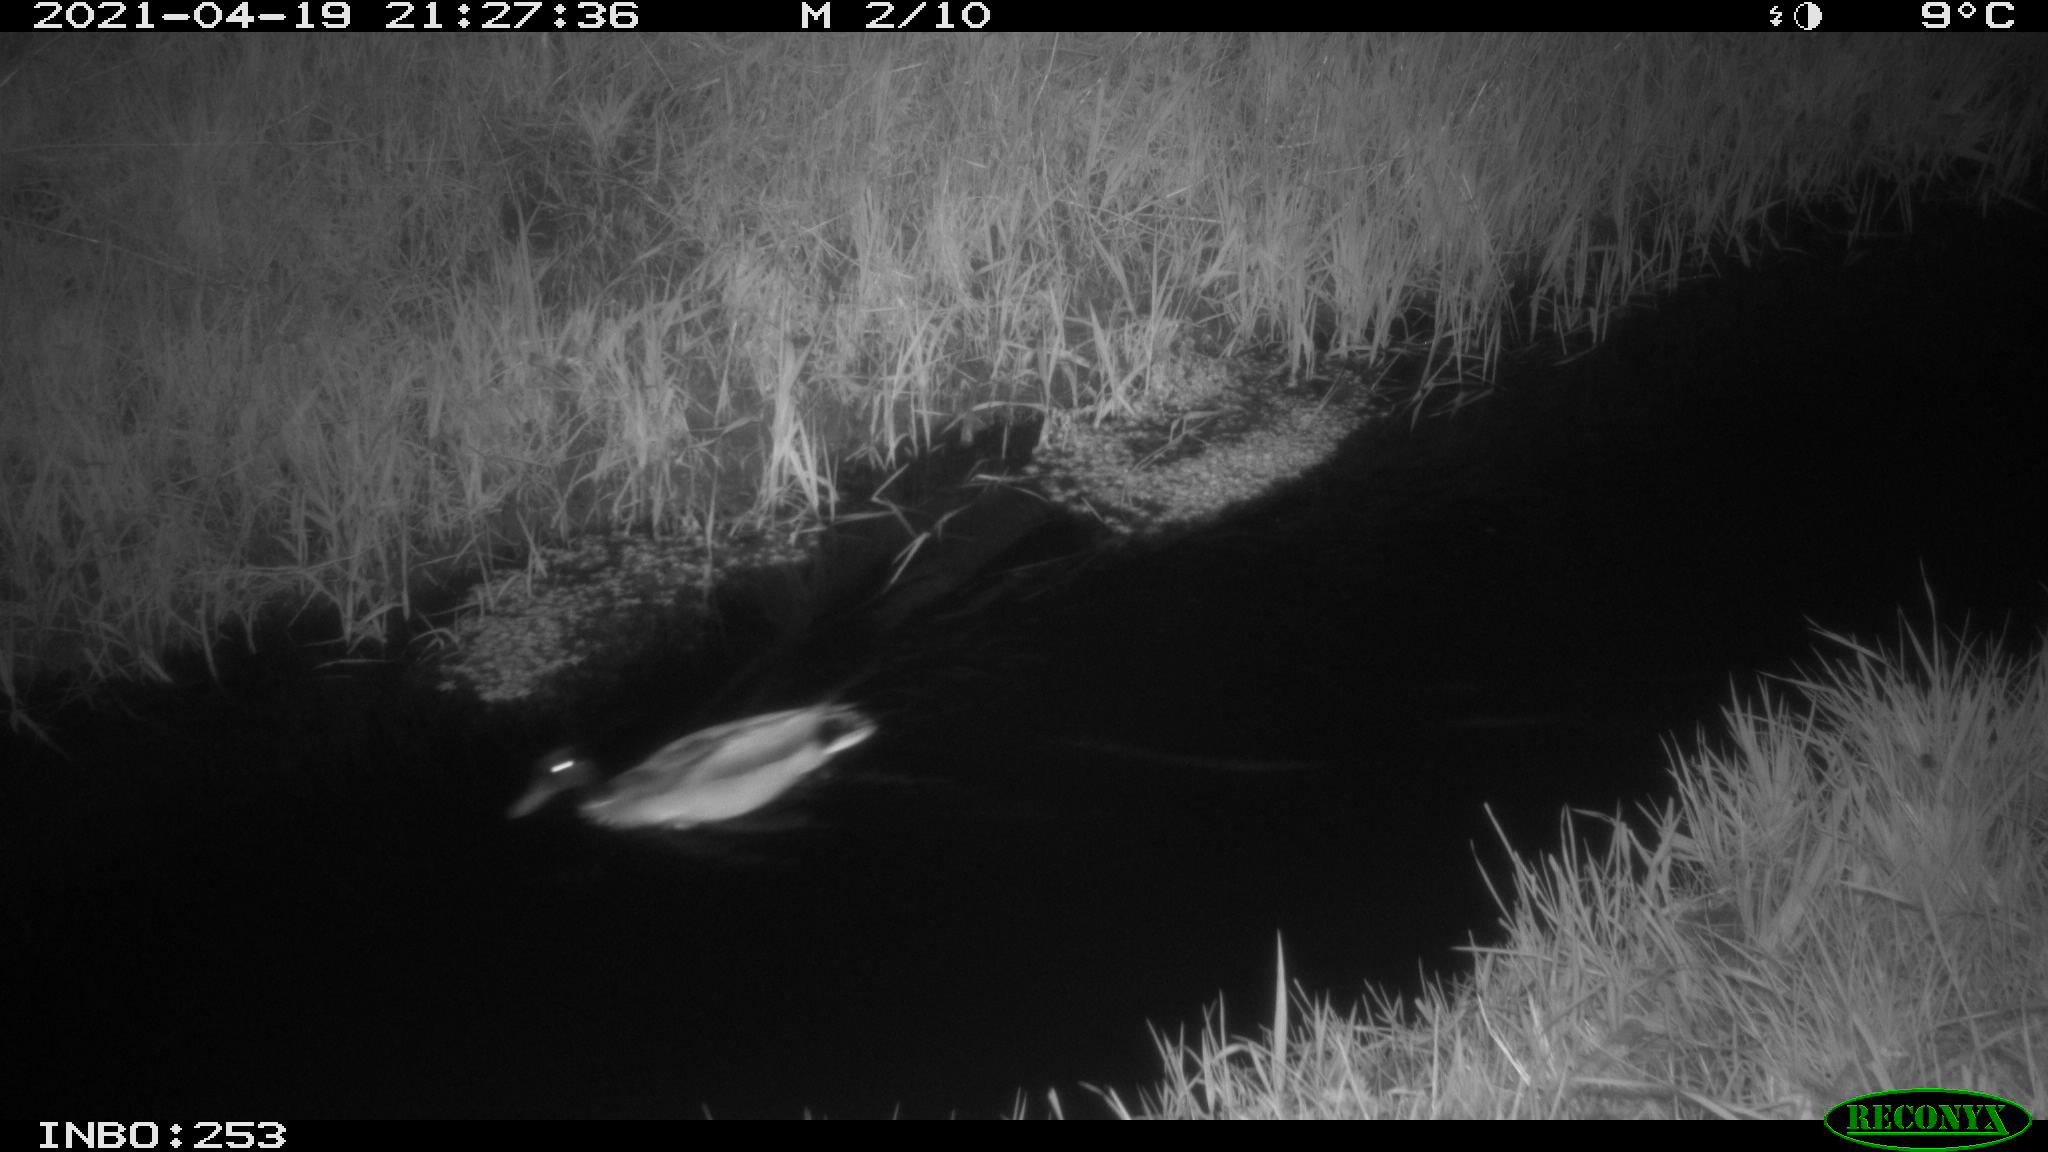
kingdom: Animalia
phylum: Chordata
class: Aves
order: Anseriformes
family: Anatidae
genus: Anas
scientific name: Anas platyrhynchos
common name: Mallard
